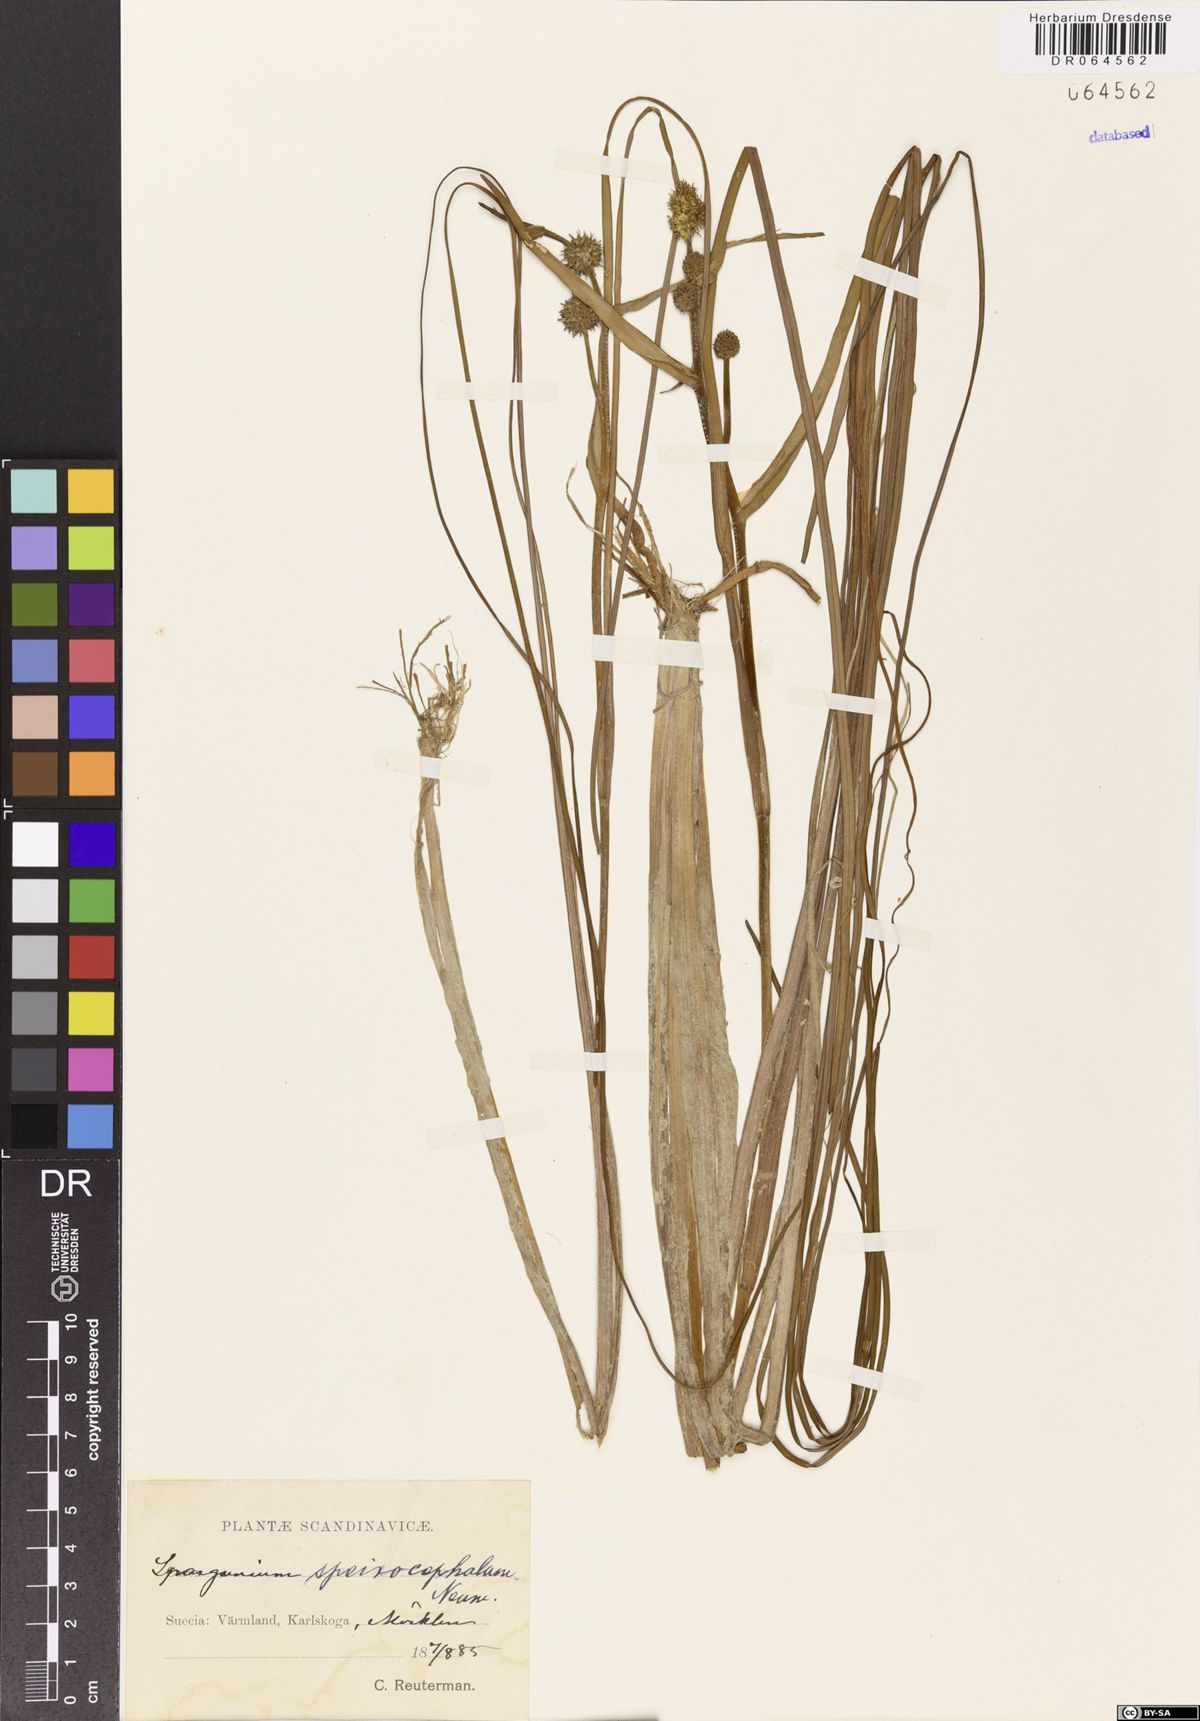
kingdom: Plantae
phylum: Tracheophyta
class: Liliopsida
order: Poales
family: Typhaceae
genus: Sparganium
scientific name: Sparganium speirocephalum
